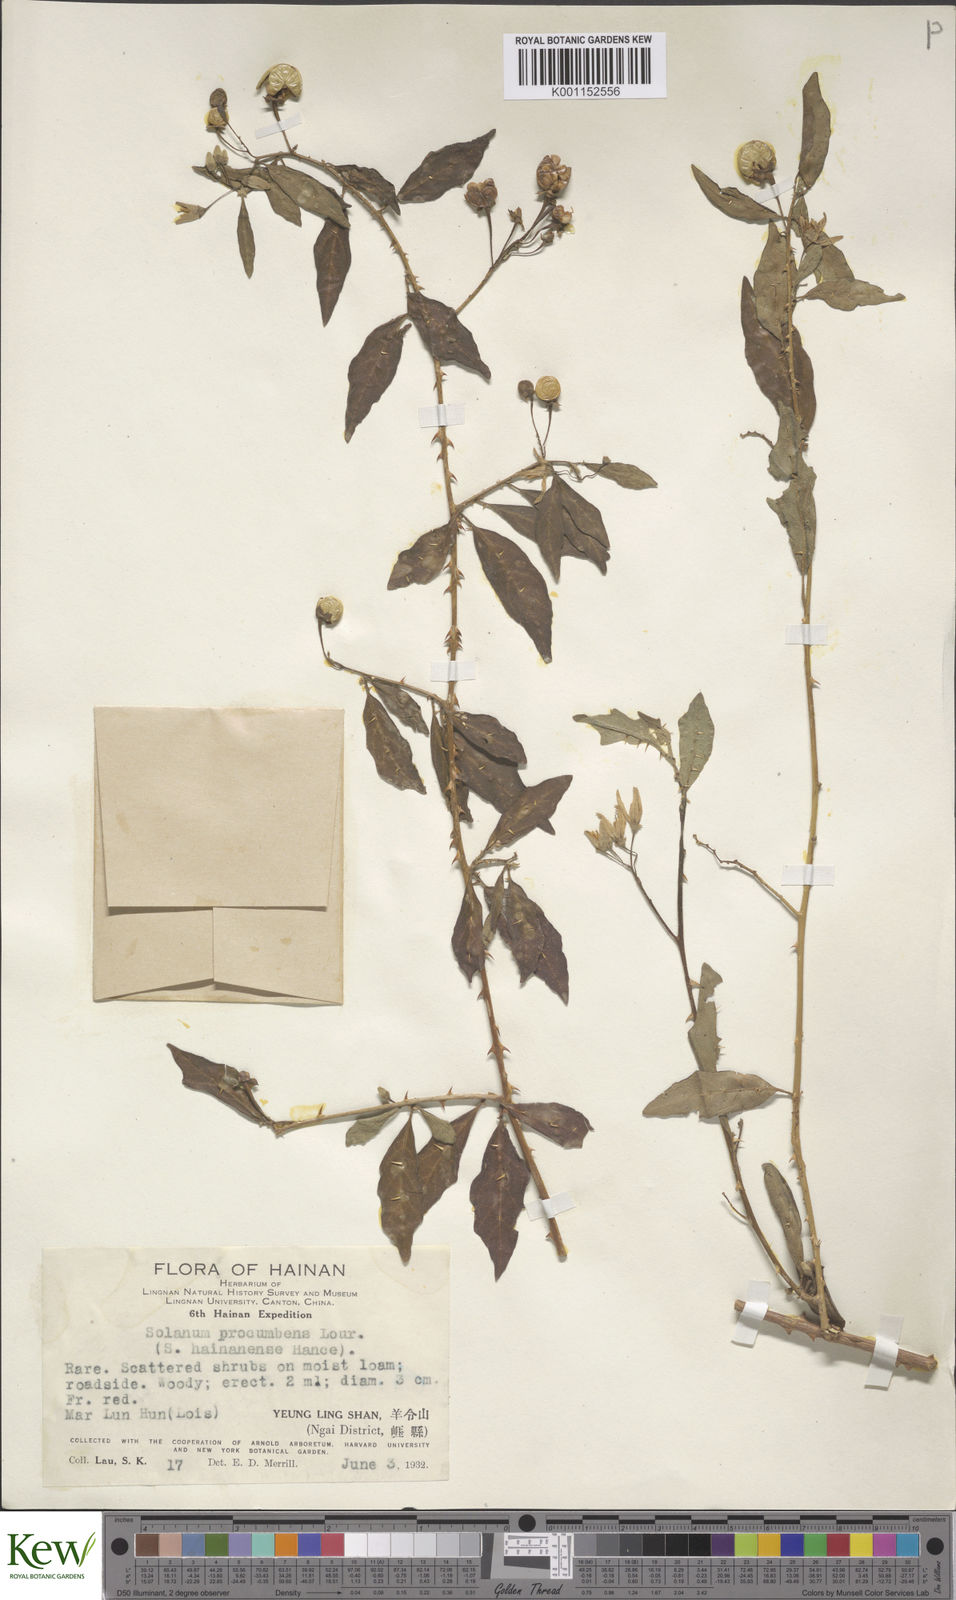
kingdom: Plantae
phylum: Tracheophyta
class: Magnoliopsida
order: Solanales
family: Solanaceae
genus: Solanum
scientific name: Solanum procumbens
